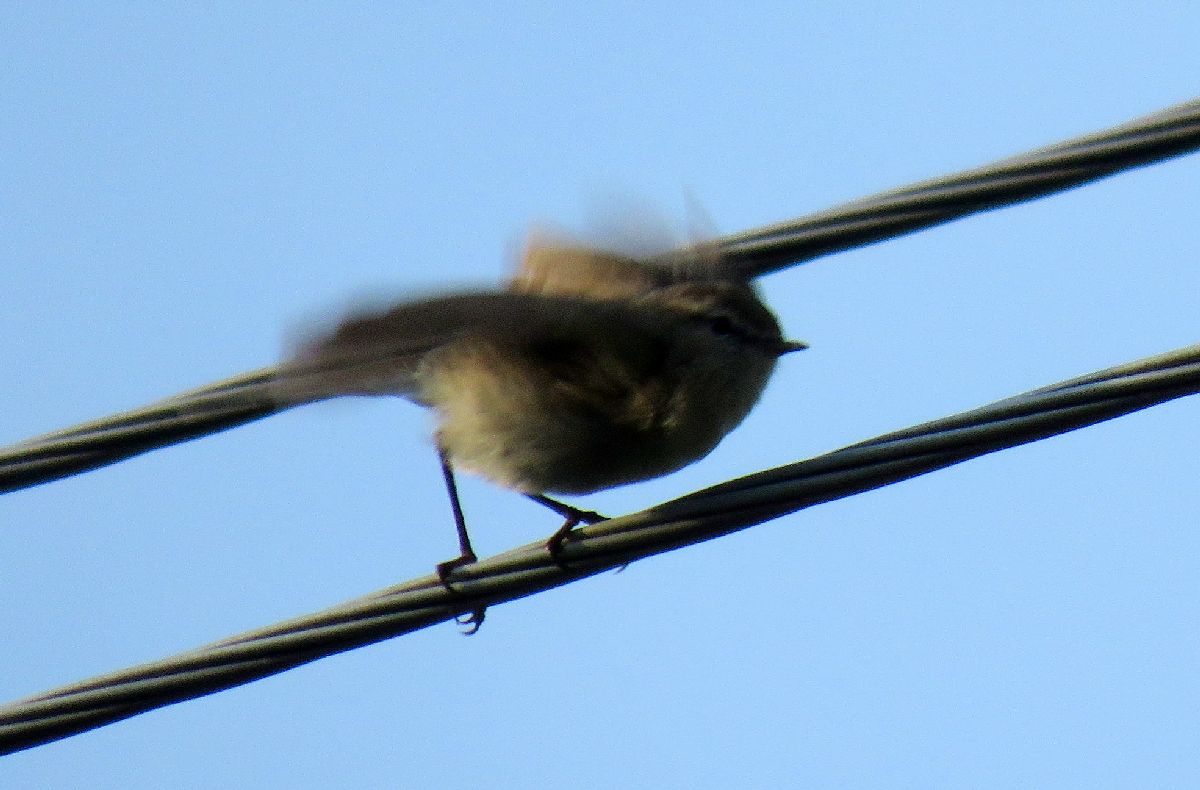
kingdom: Animalia
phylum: Chordata
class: Aves
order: Passeriformes
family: Phylloscopidae
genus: Phylloscopus
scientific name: Phylloscopus sindianus
